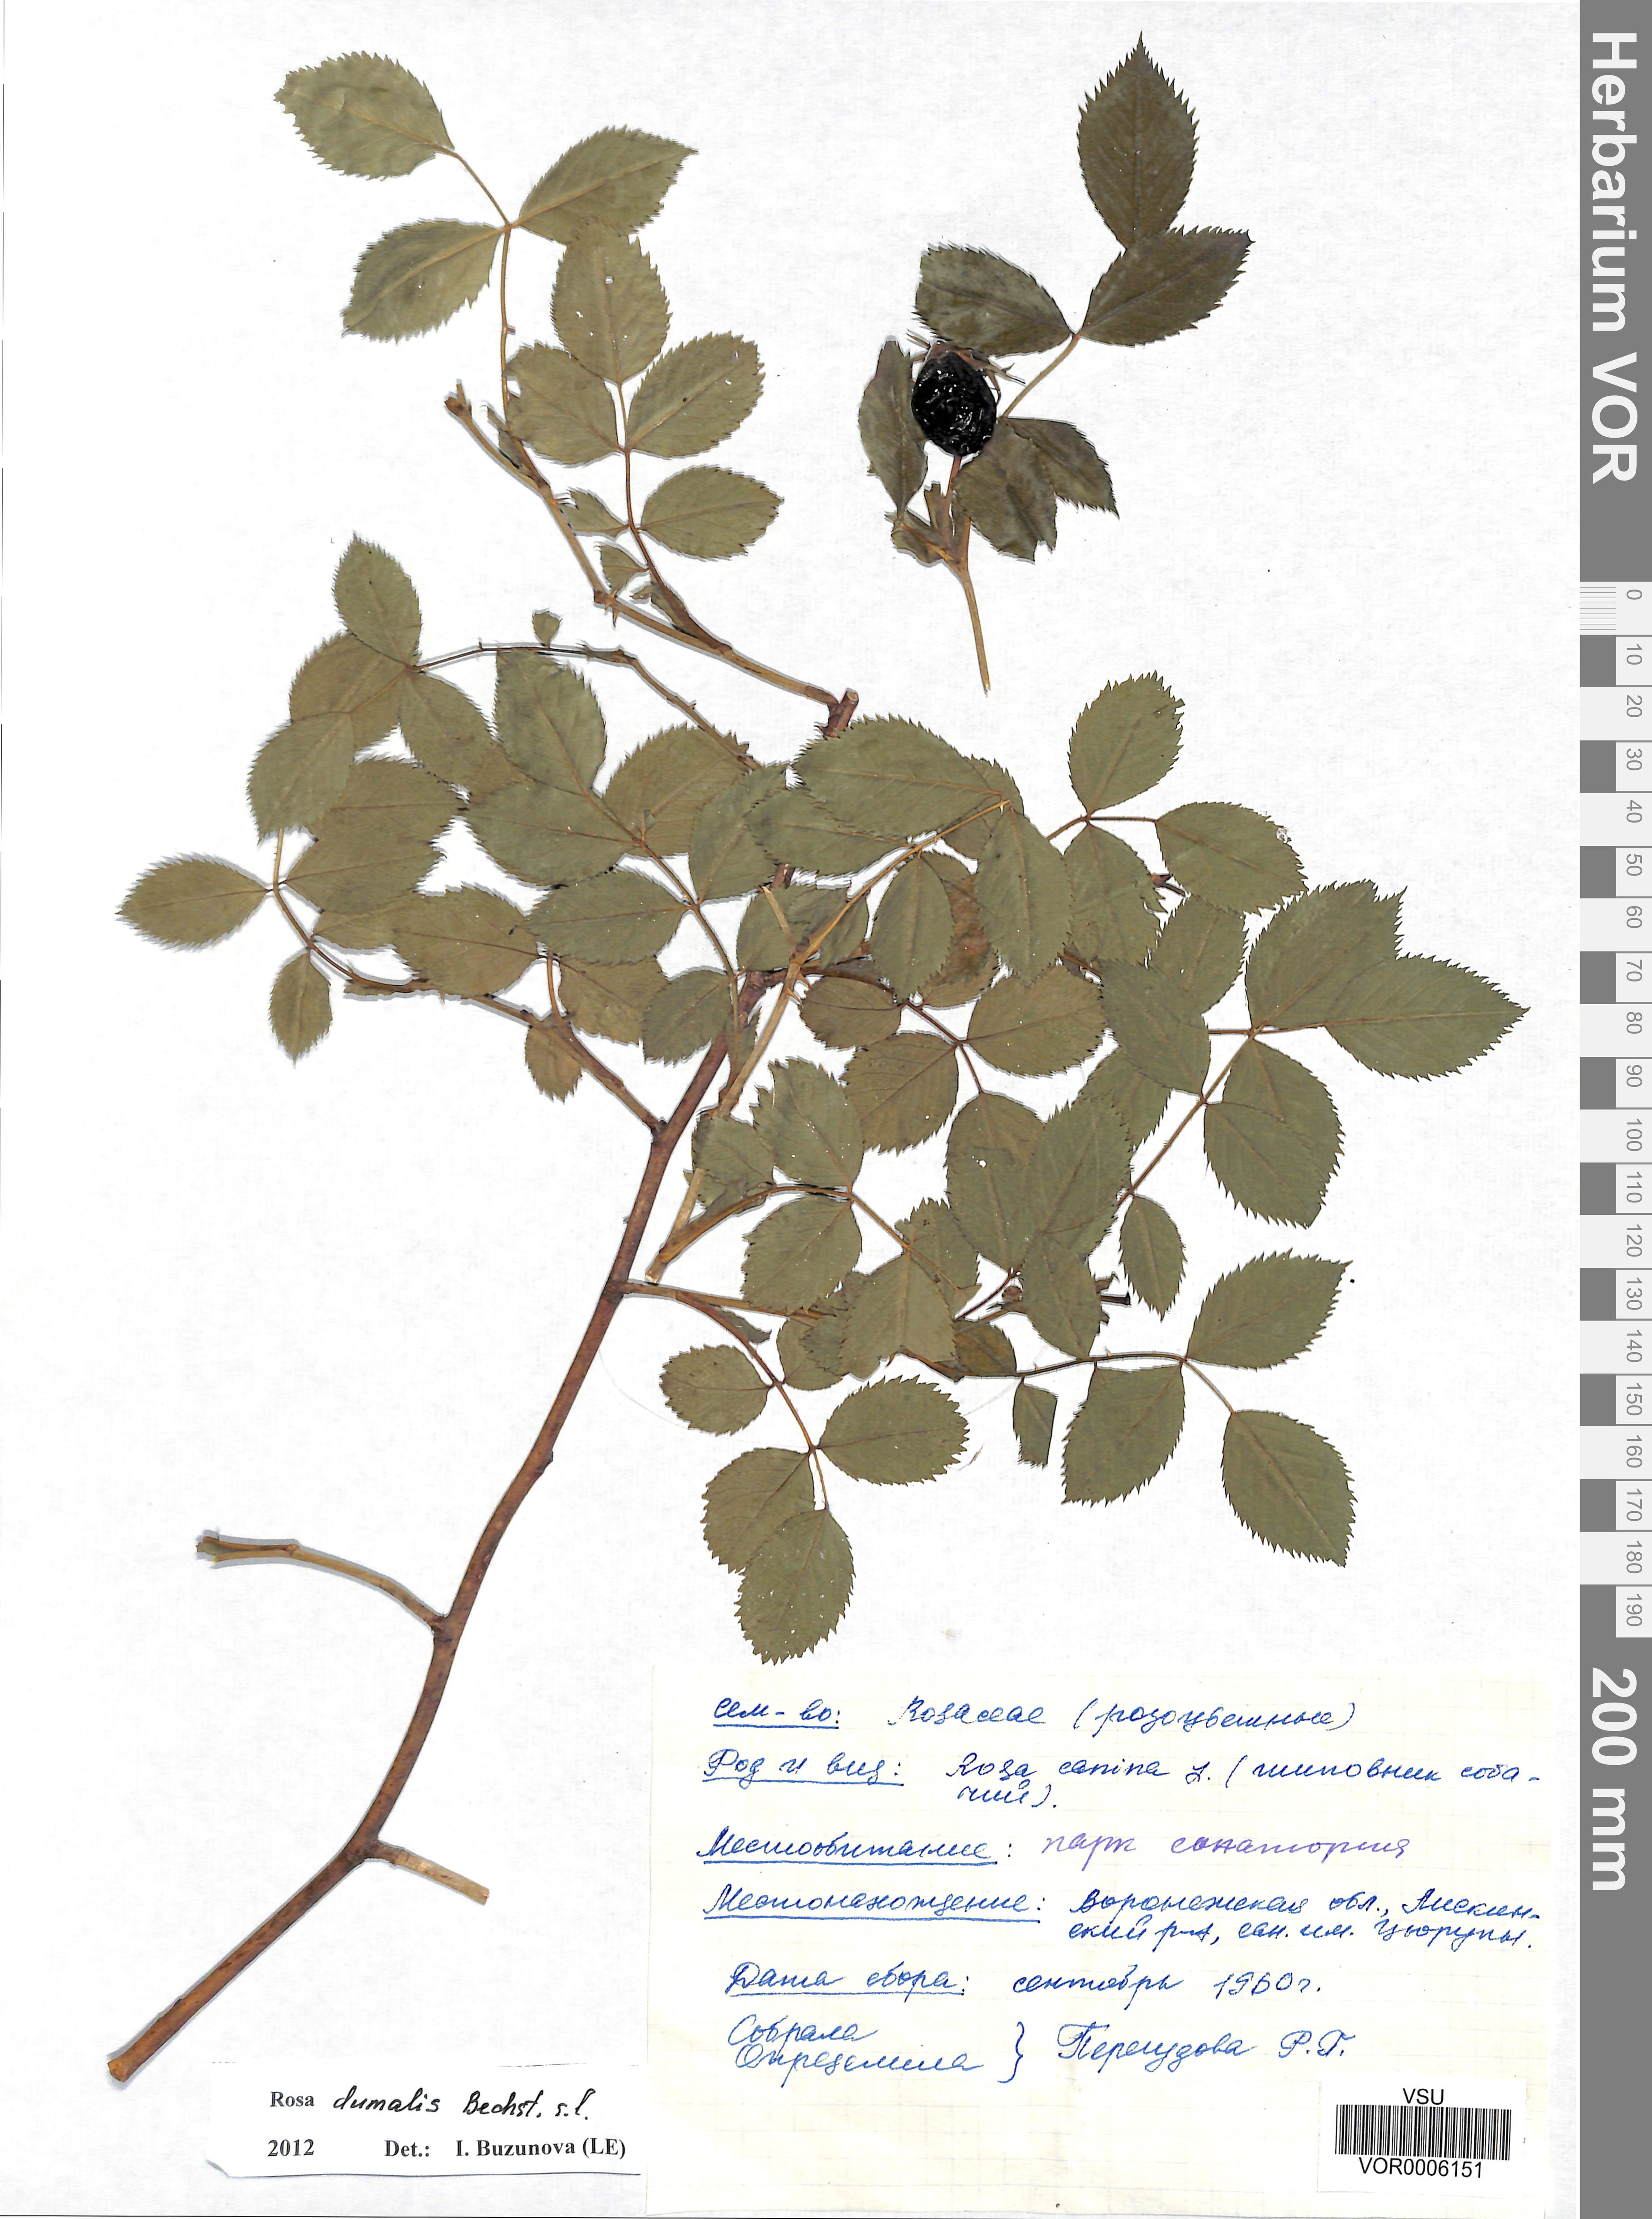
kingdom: Plantae
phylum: Tracheophyta
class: Magnoliopsida
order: Rosales
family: Rosaceae
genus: Rosa
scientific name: Rosa dumalis
